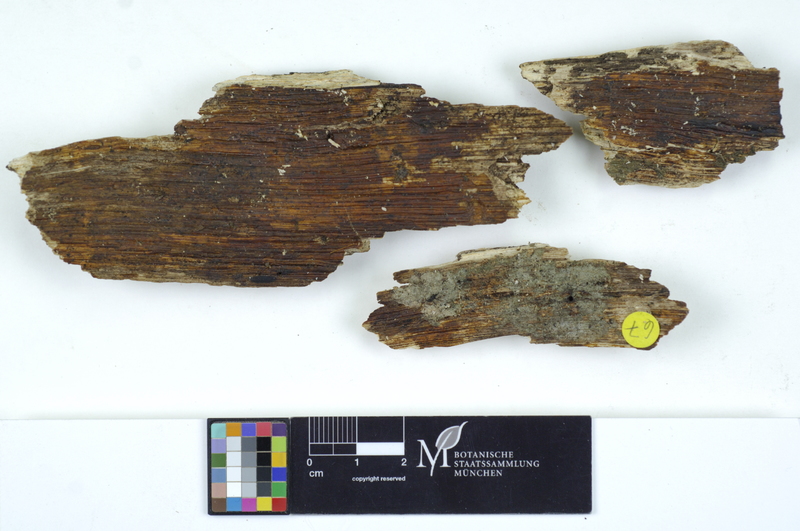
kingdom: Fungi
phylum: Basidiomycota
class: Agaricomycetes
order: Auriculariales
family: Auriculariaceae
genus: Exidiopsis
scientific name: Exidiopsis galzinii
